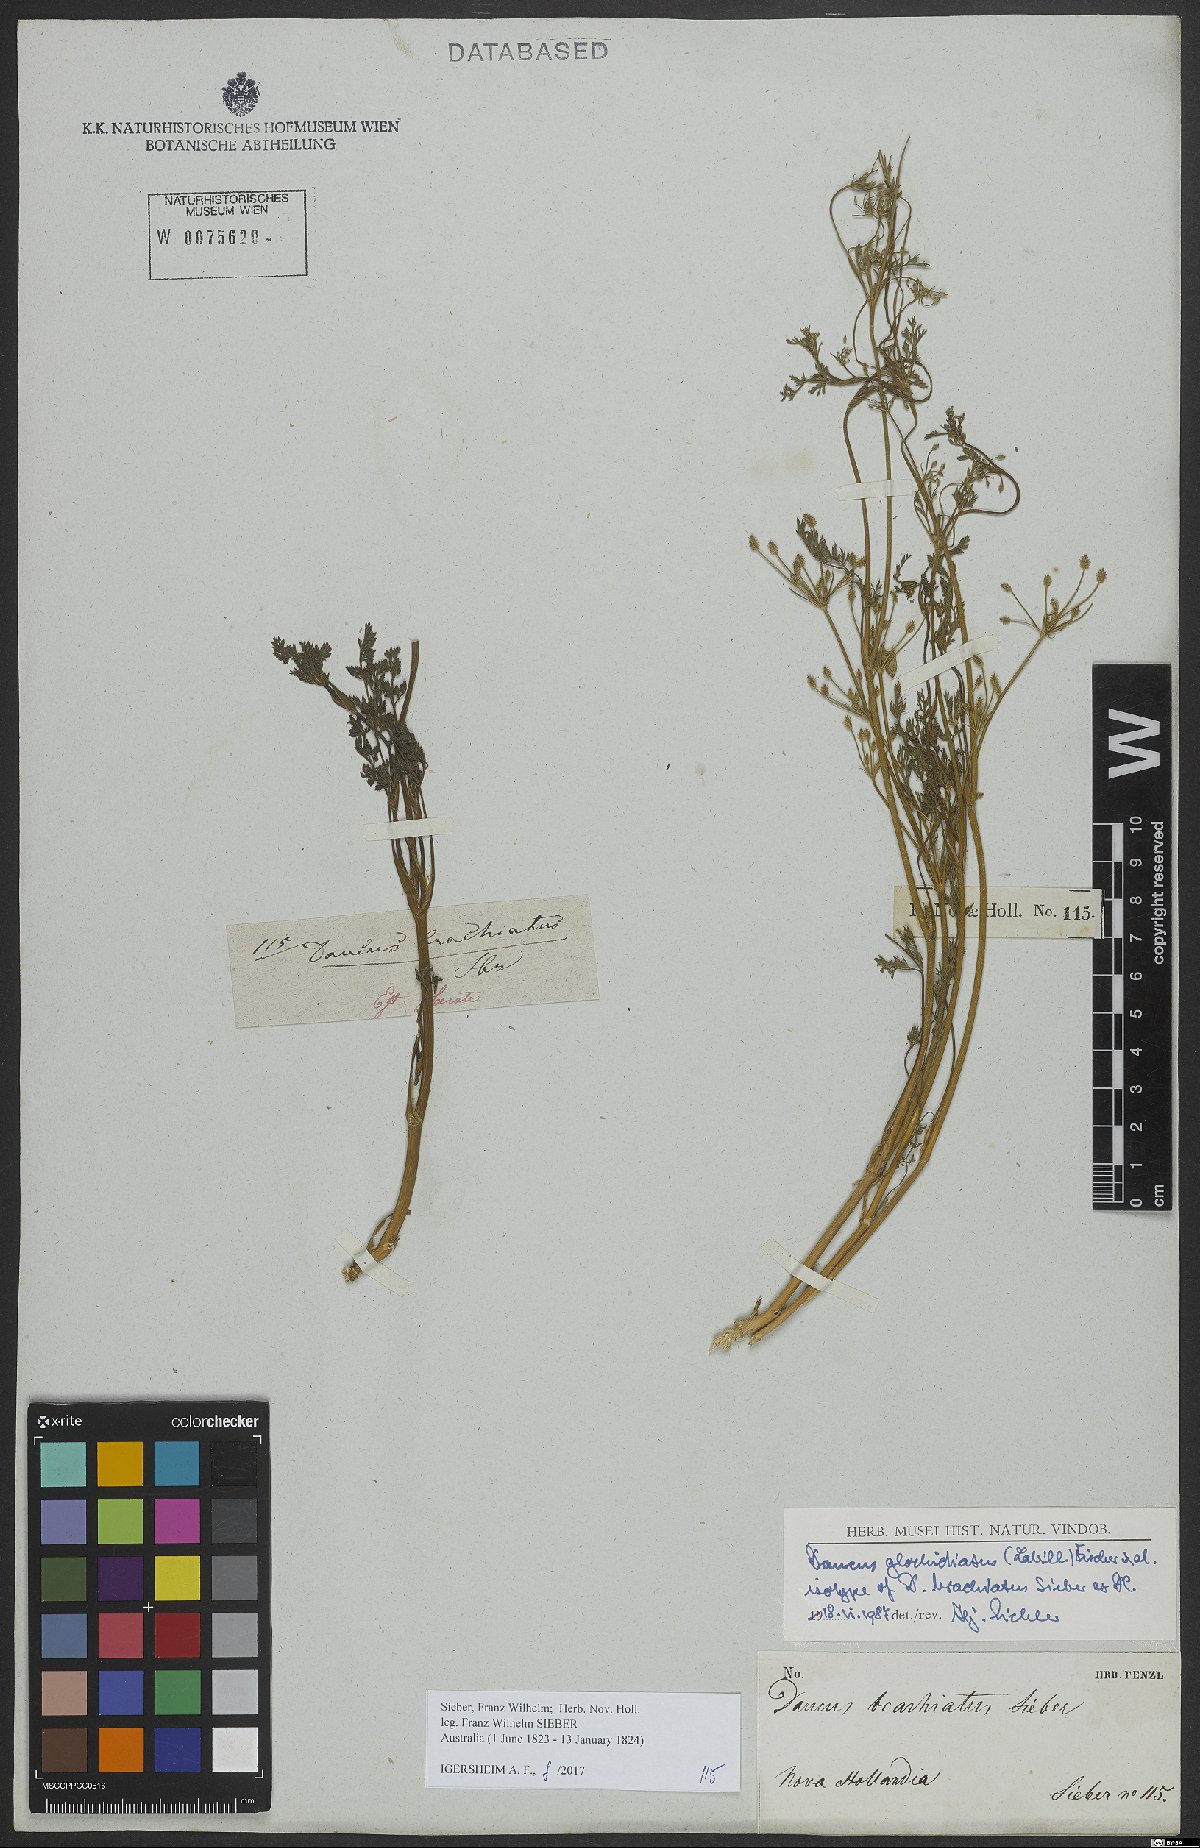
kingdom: Plantae
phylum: Tracheophyta
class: Magnoliopsida
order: Apiales
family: Apiaceae
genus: Daucus
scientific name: Daucus glochidiatus
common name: Australian carrot
